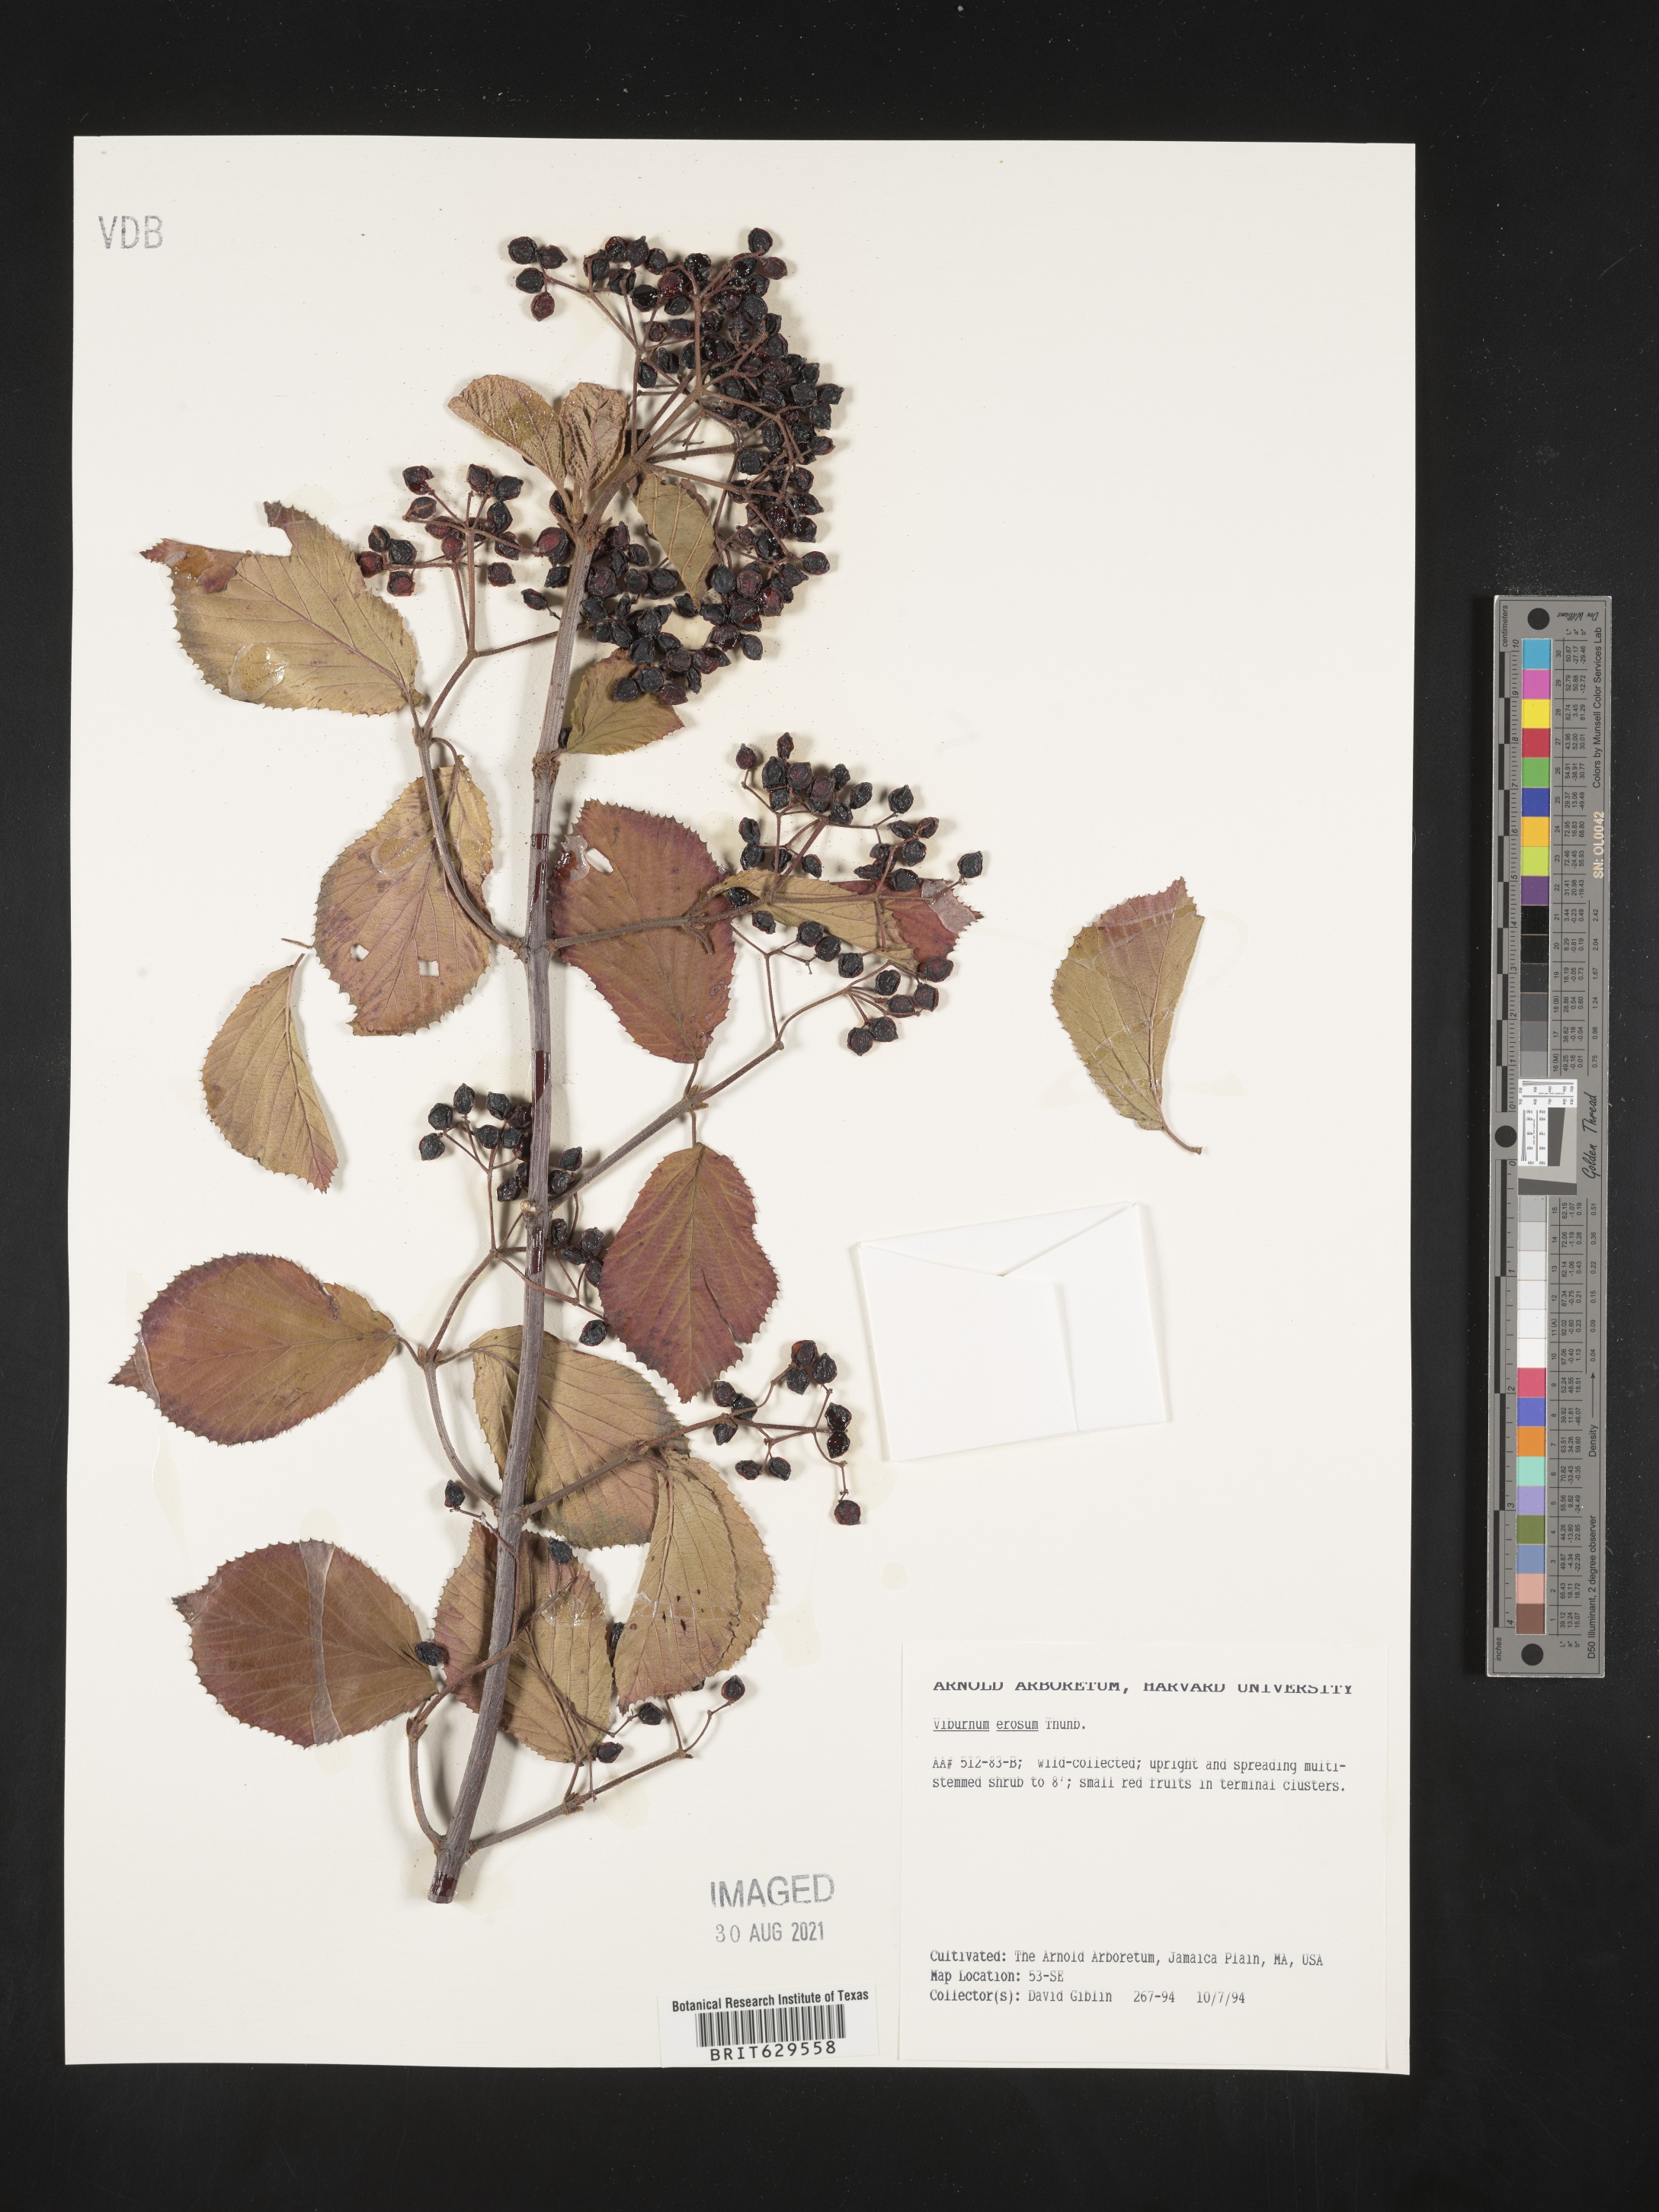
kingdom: Plantae
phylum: Tracheophyta
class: Magnoliopsida
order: Dipsacales
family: Viburnaceae
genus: Viburnum
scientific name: Viburnum erosum
